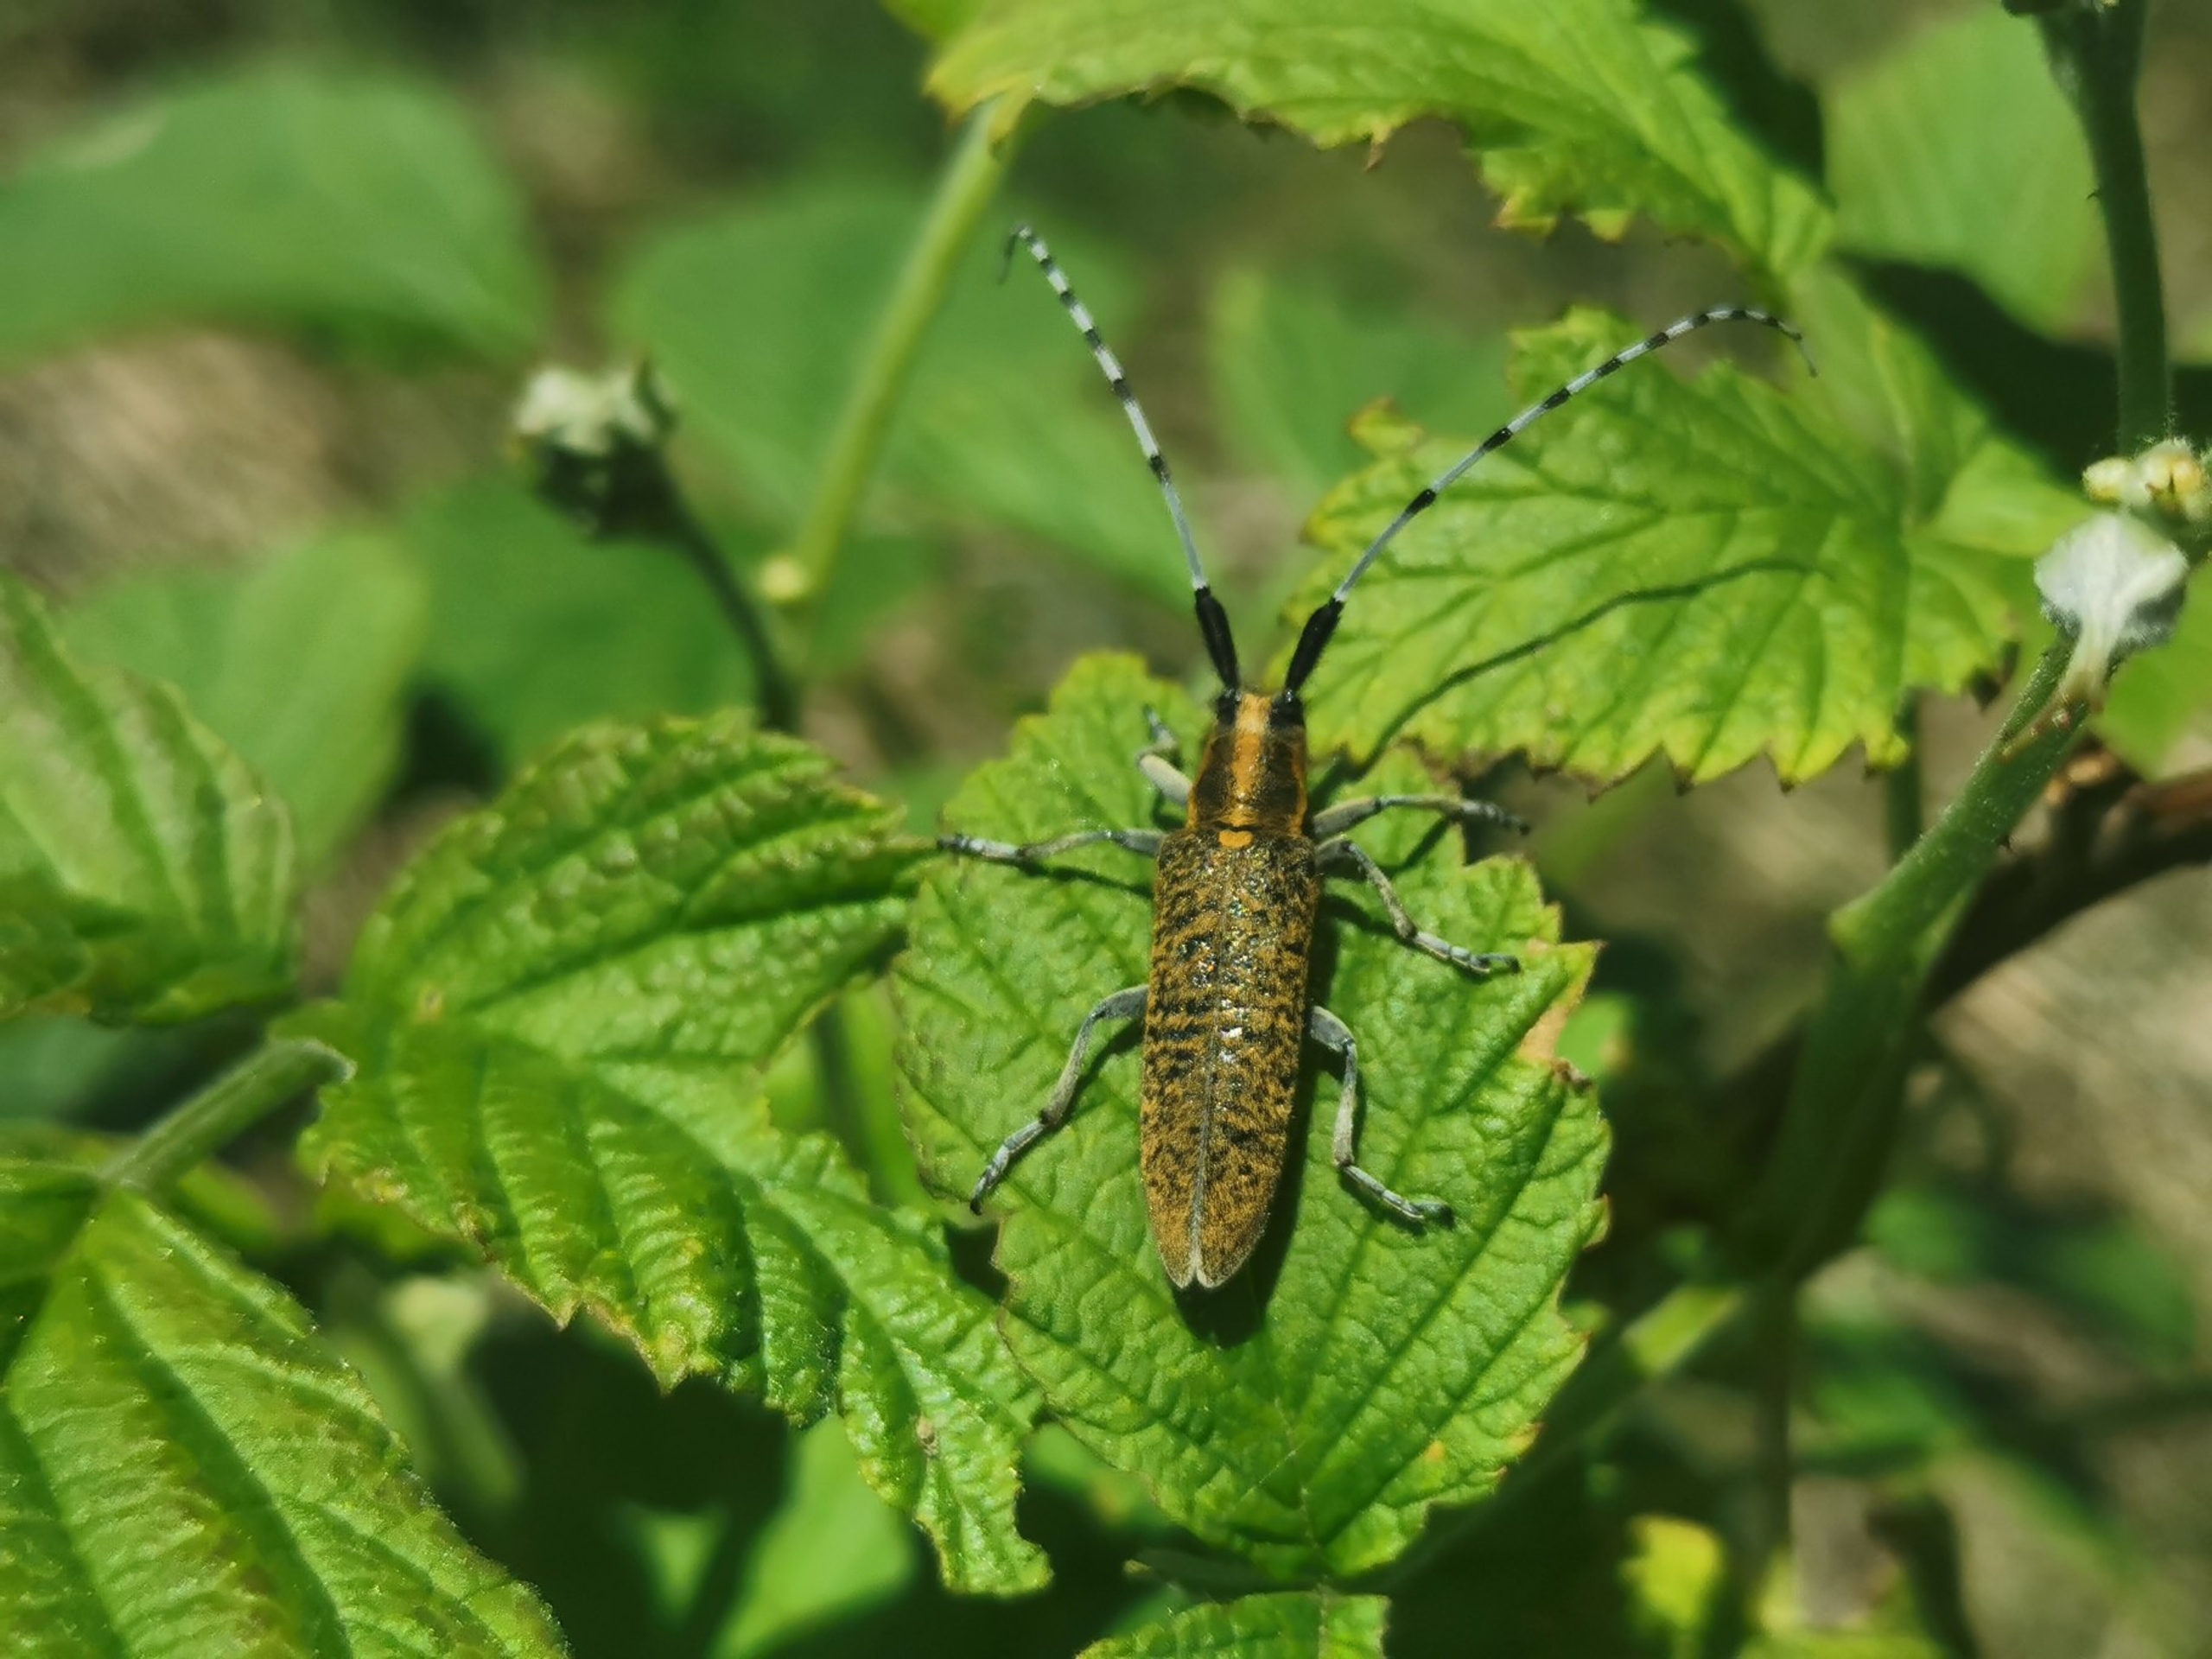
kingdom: Animalia
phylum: Arthropoda
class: Insecta
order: Coleoptera
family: Cerambycidae
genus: Agapanthia
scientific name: Agapanthia villosoviridescens
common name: Tidselbuk
